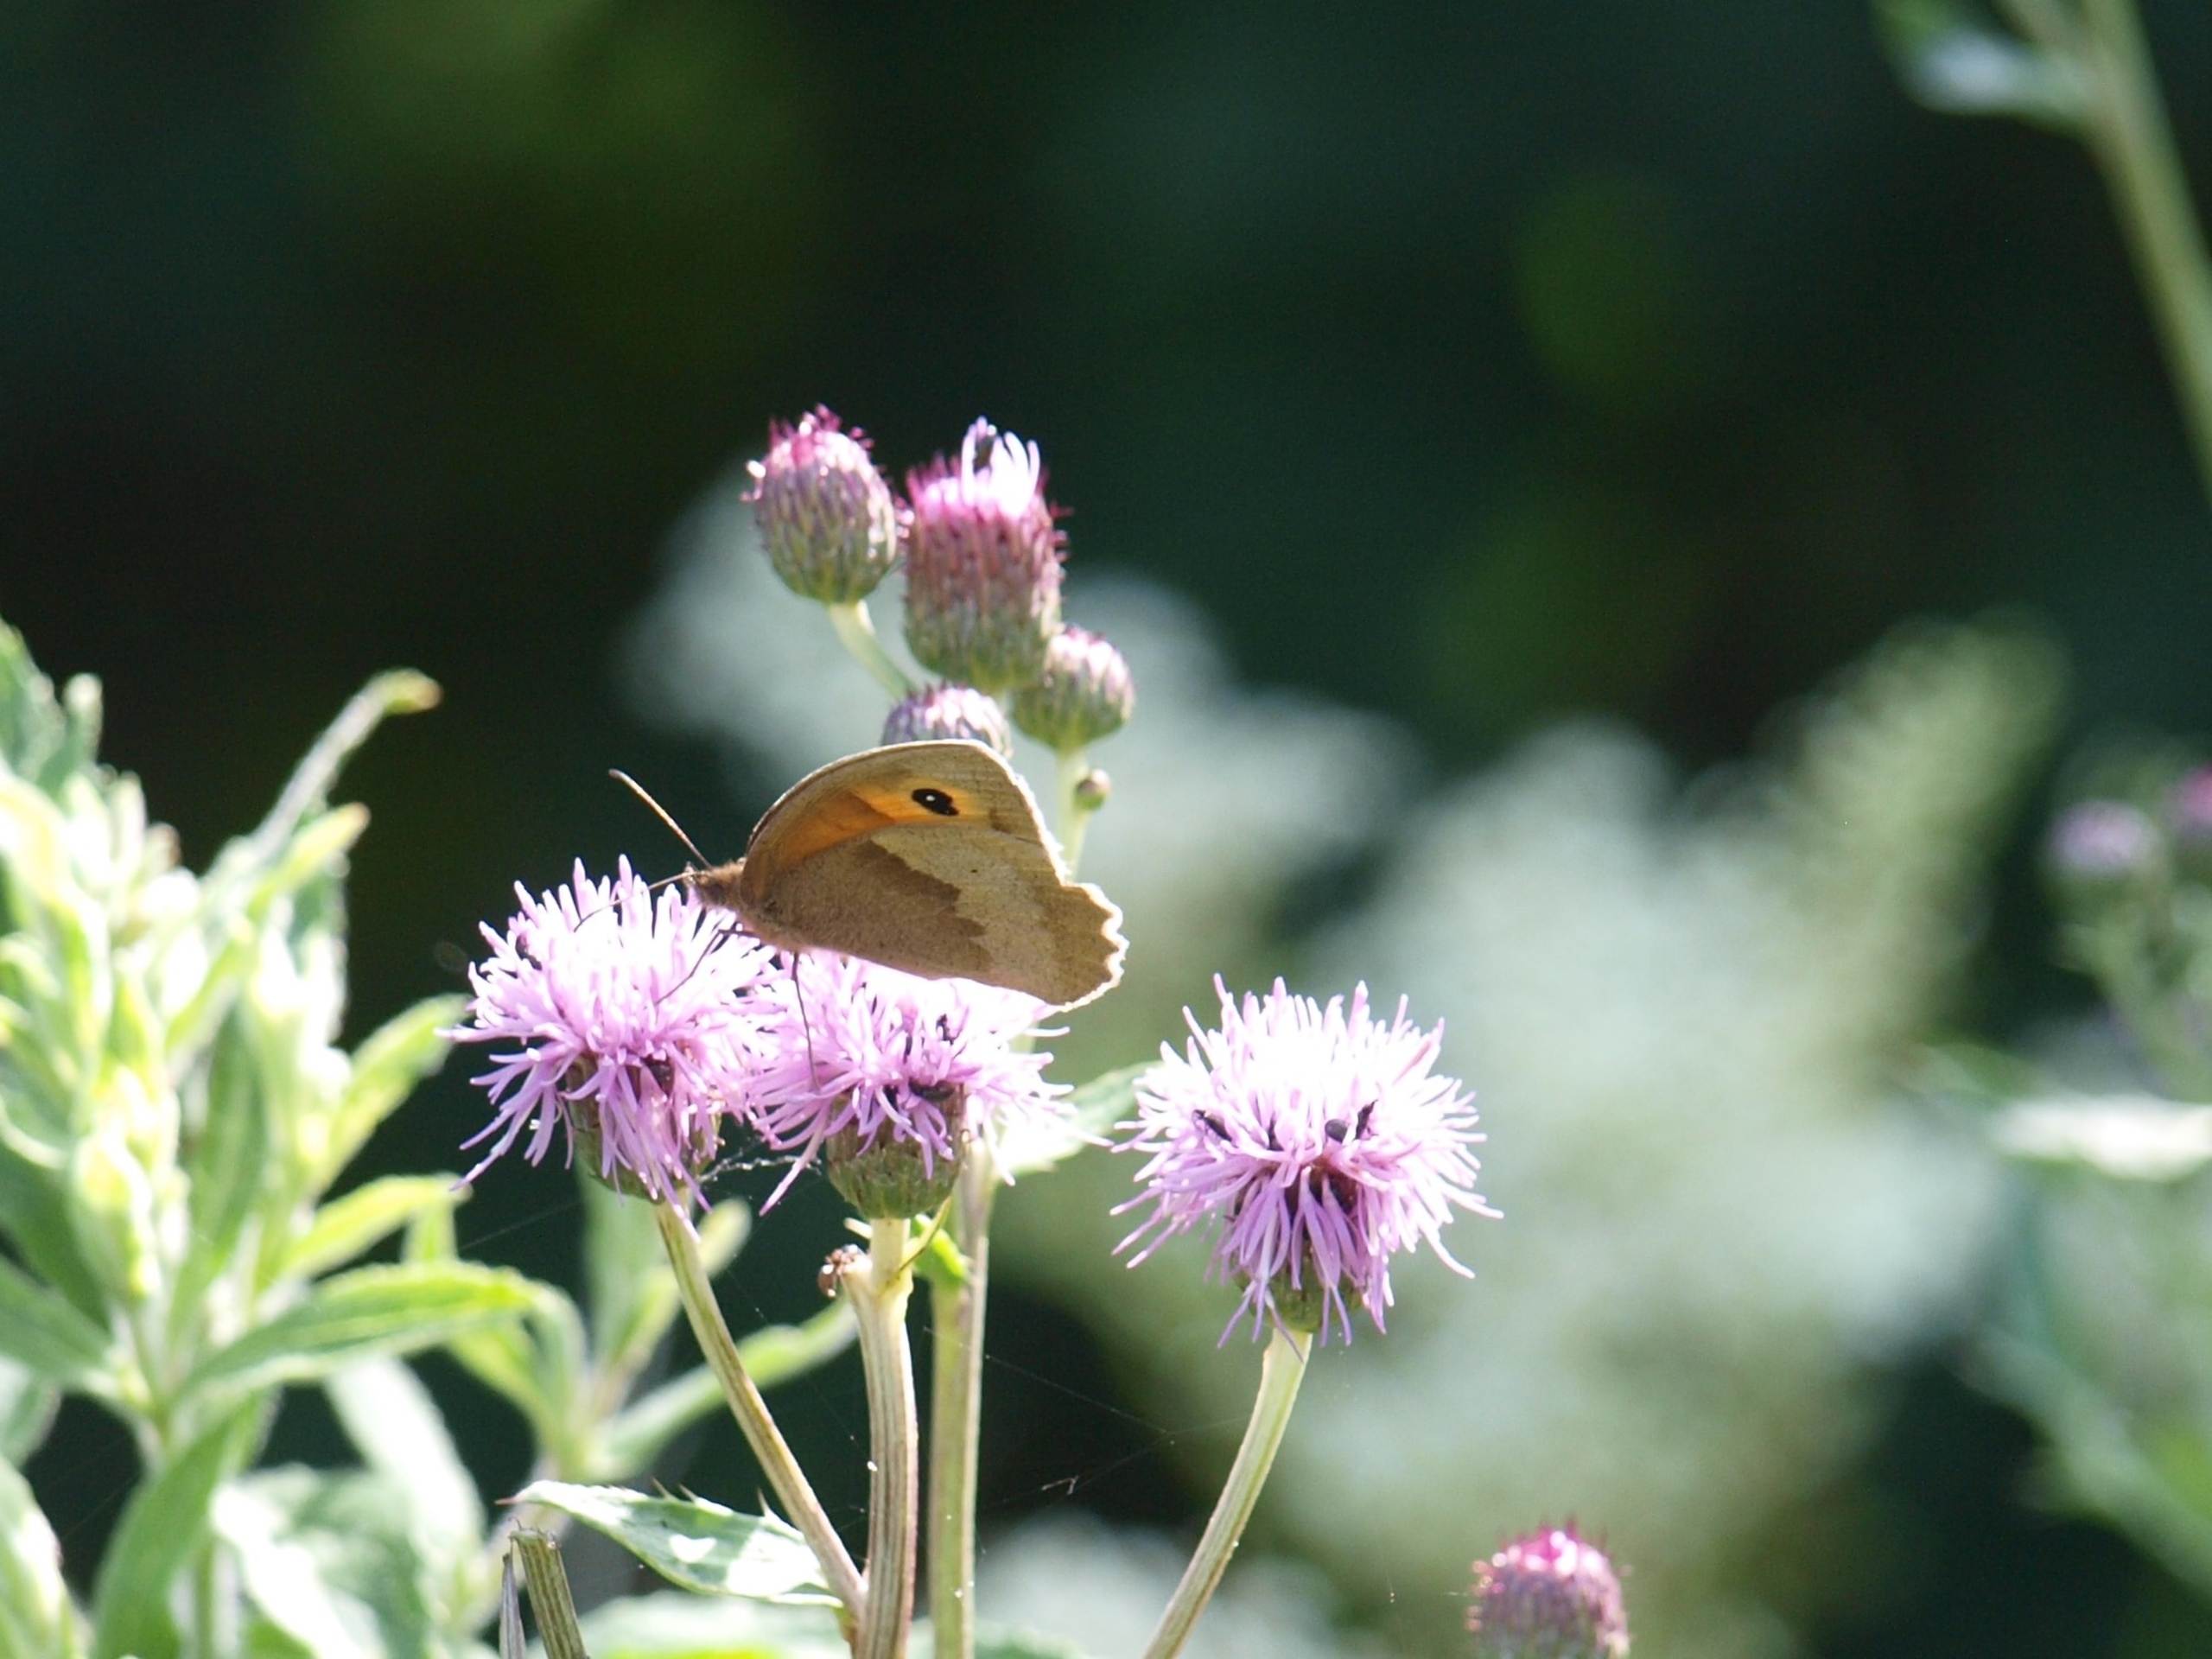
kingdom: Animalia
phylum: Arthropoda
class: Insecta
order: Lepidoptera
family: Nymphalidae
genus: Maniola
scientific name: Maniola jurtina
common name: Græsrandøje
